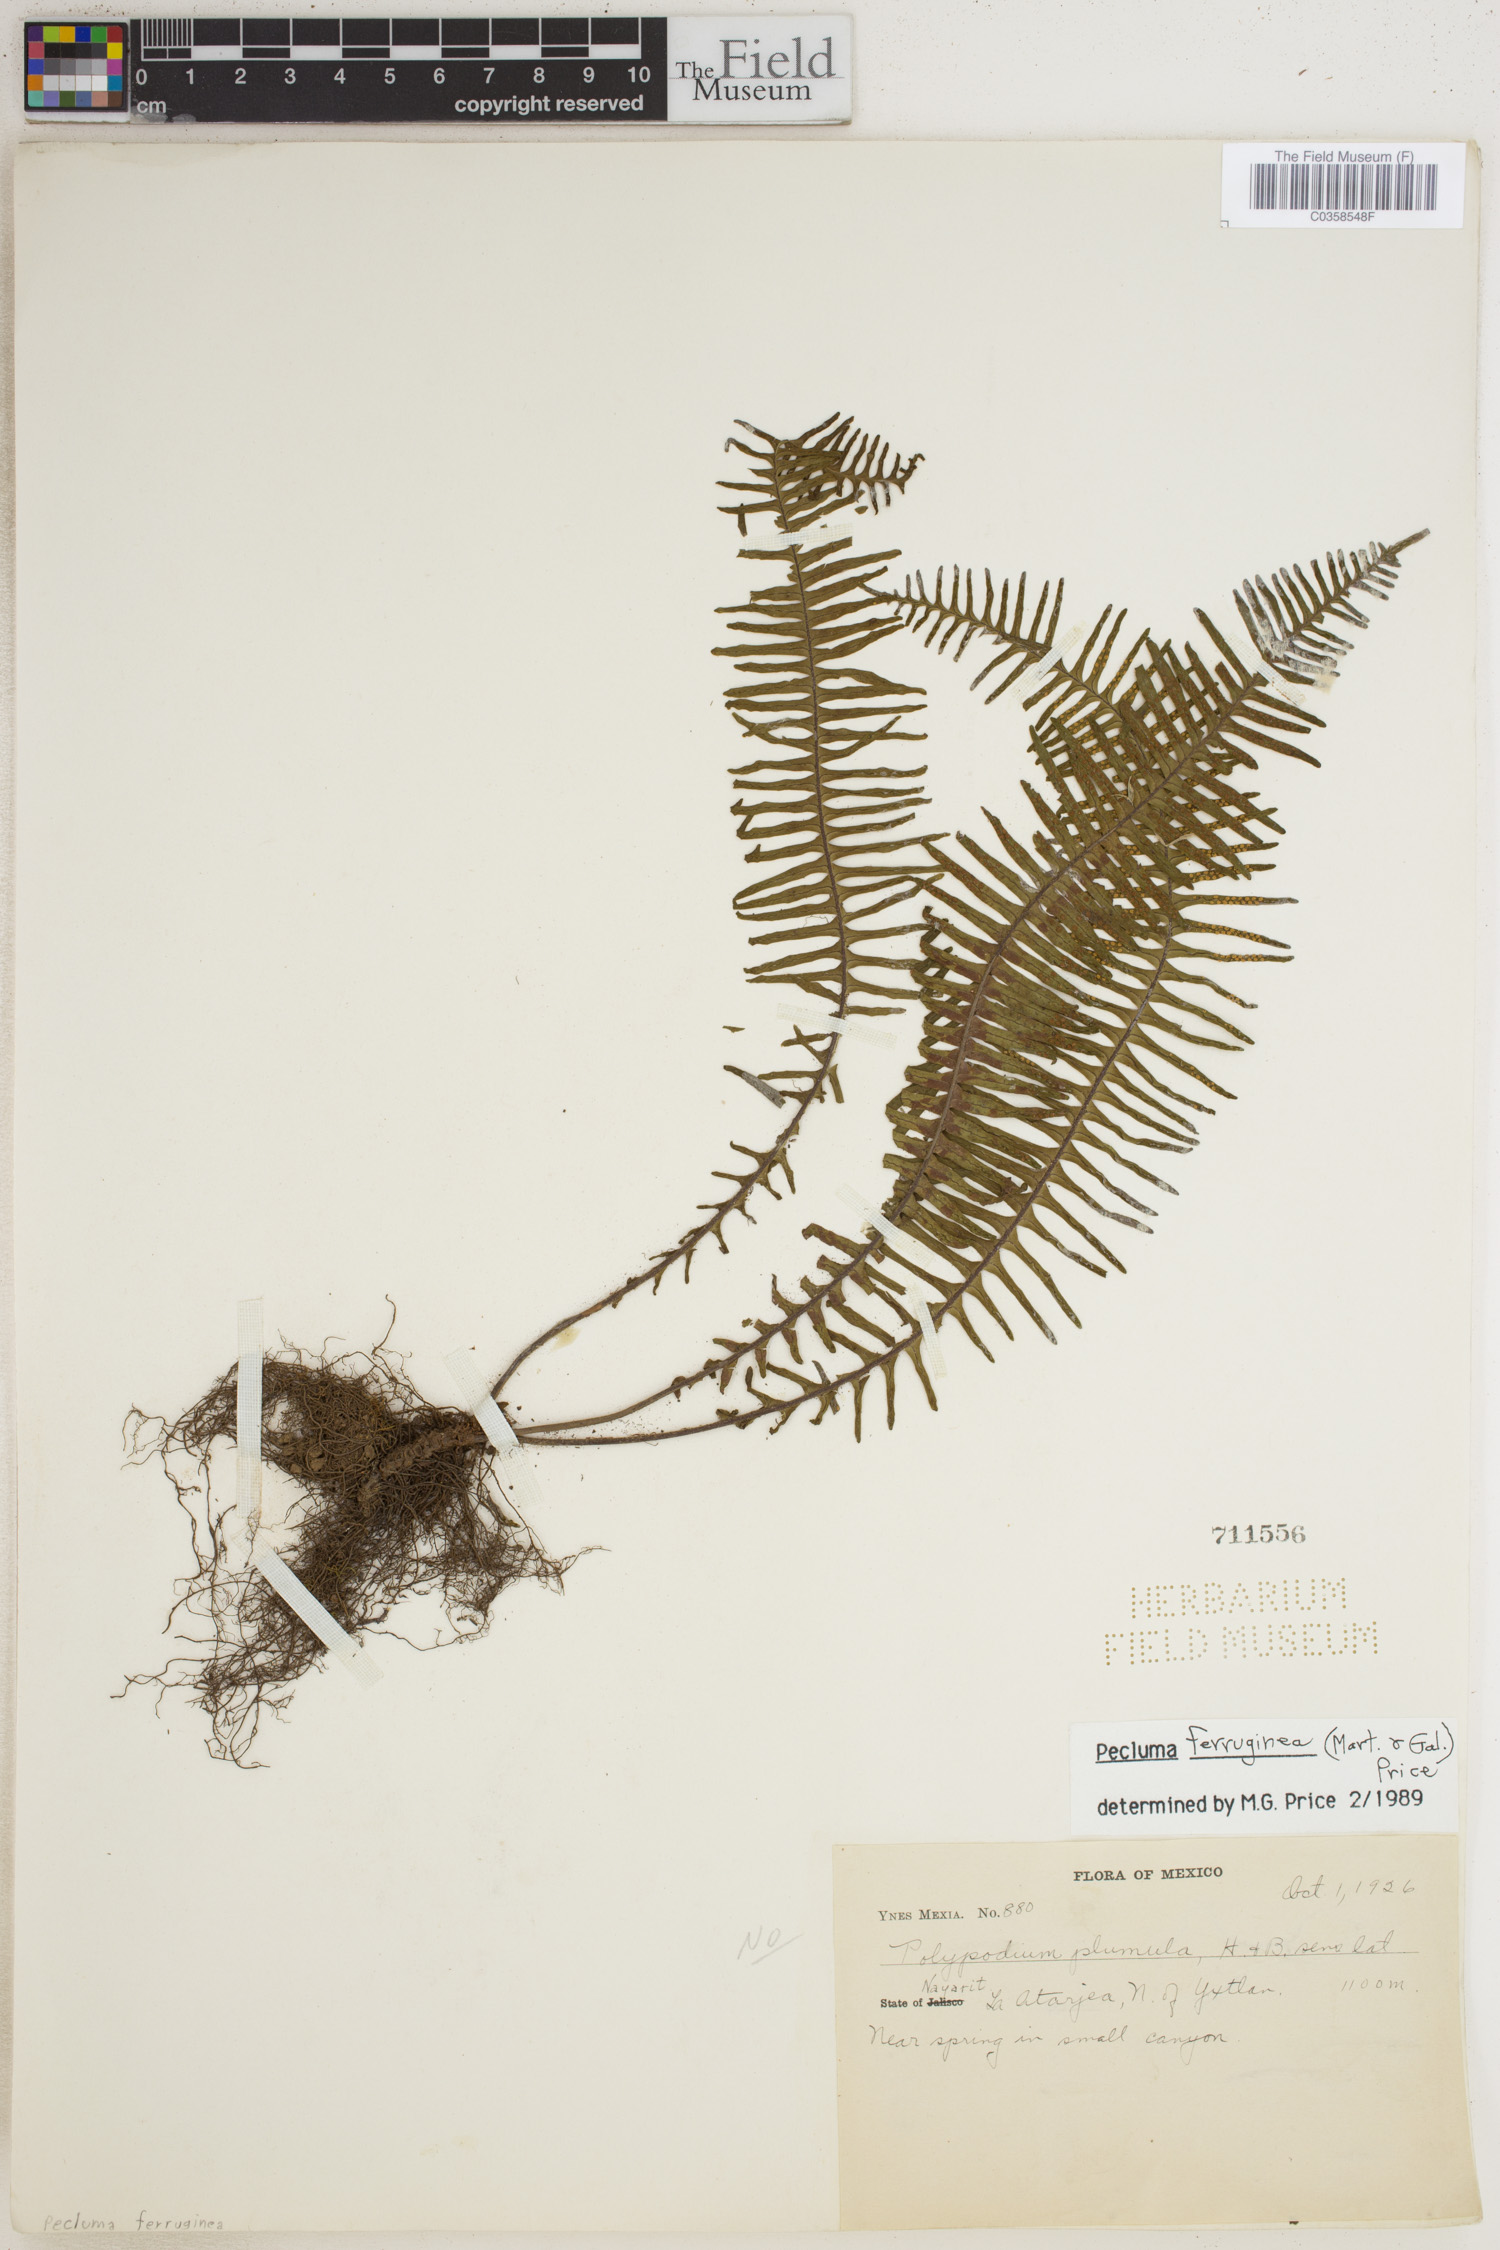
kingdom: Plantae
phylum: Tracheophyta
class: Polypodiopsida
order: Polypodiales
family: Polypodiaceae
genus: Pecluma
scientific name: Pecluma ferruginea
